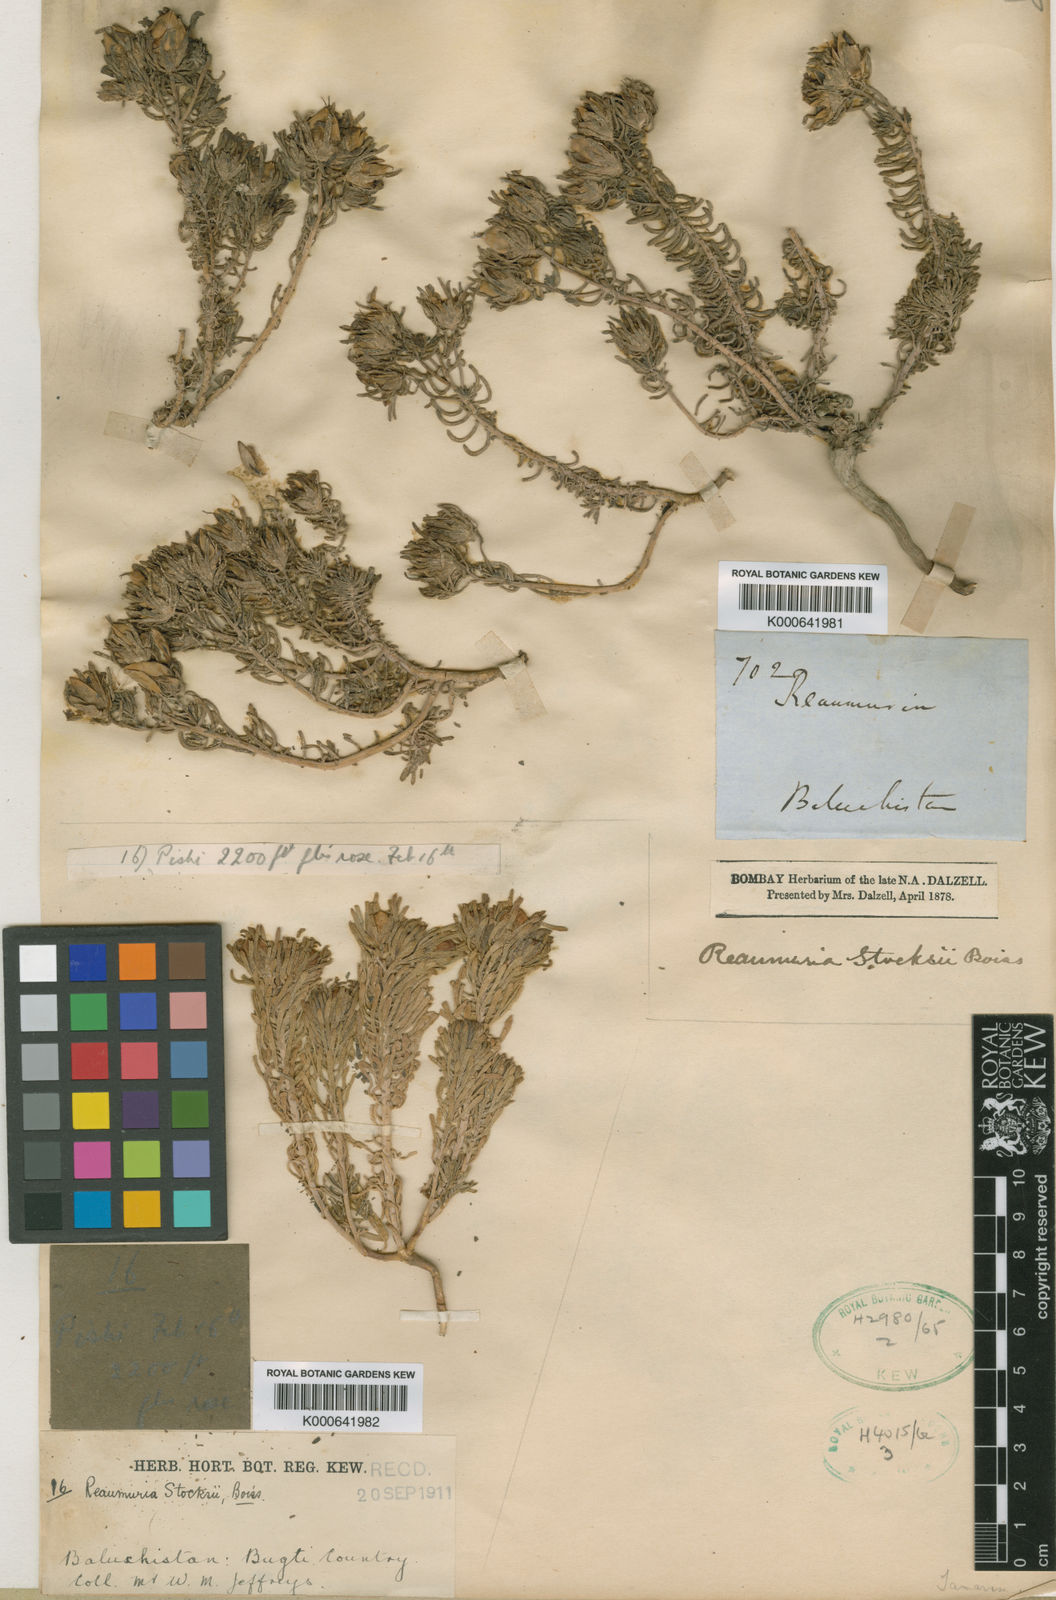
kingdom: Plantae
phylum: Tracheophyta
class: Magnoliopsida
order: Caryophyllales
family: Tamaricaceae
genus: Reaumuria
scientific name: Reaumuria stocksii
